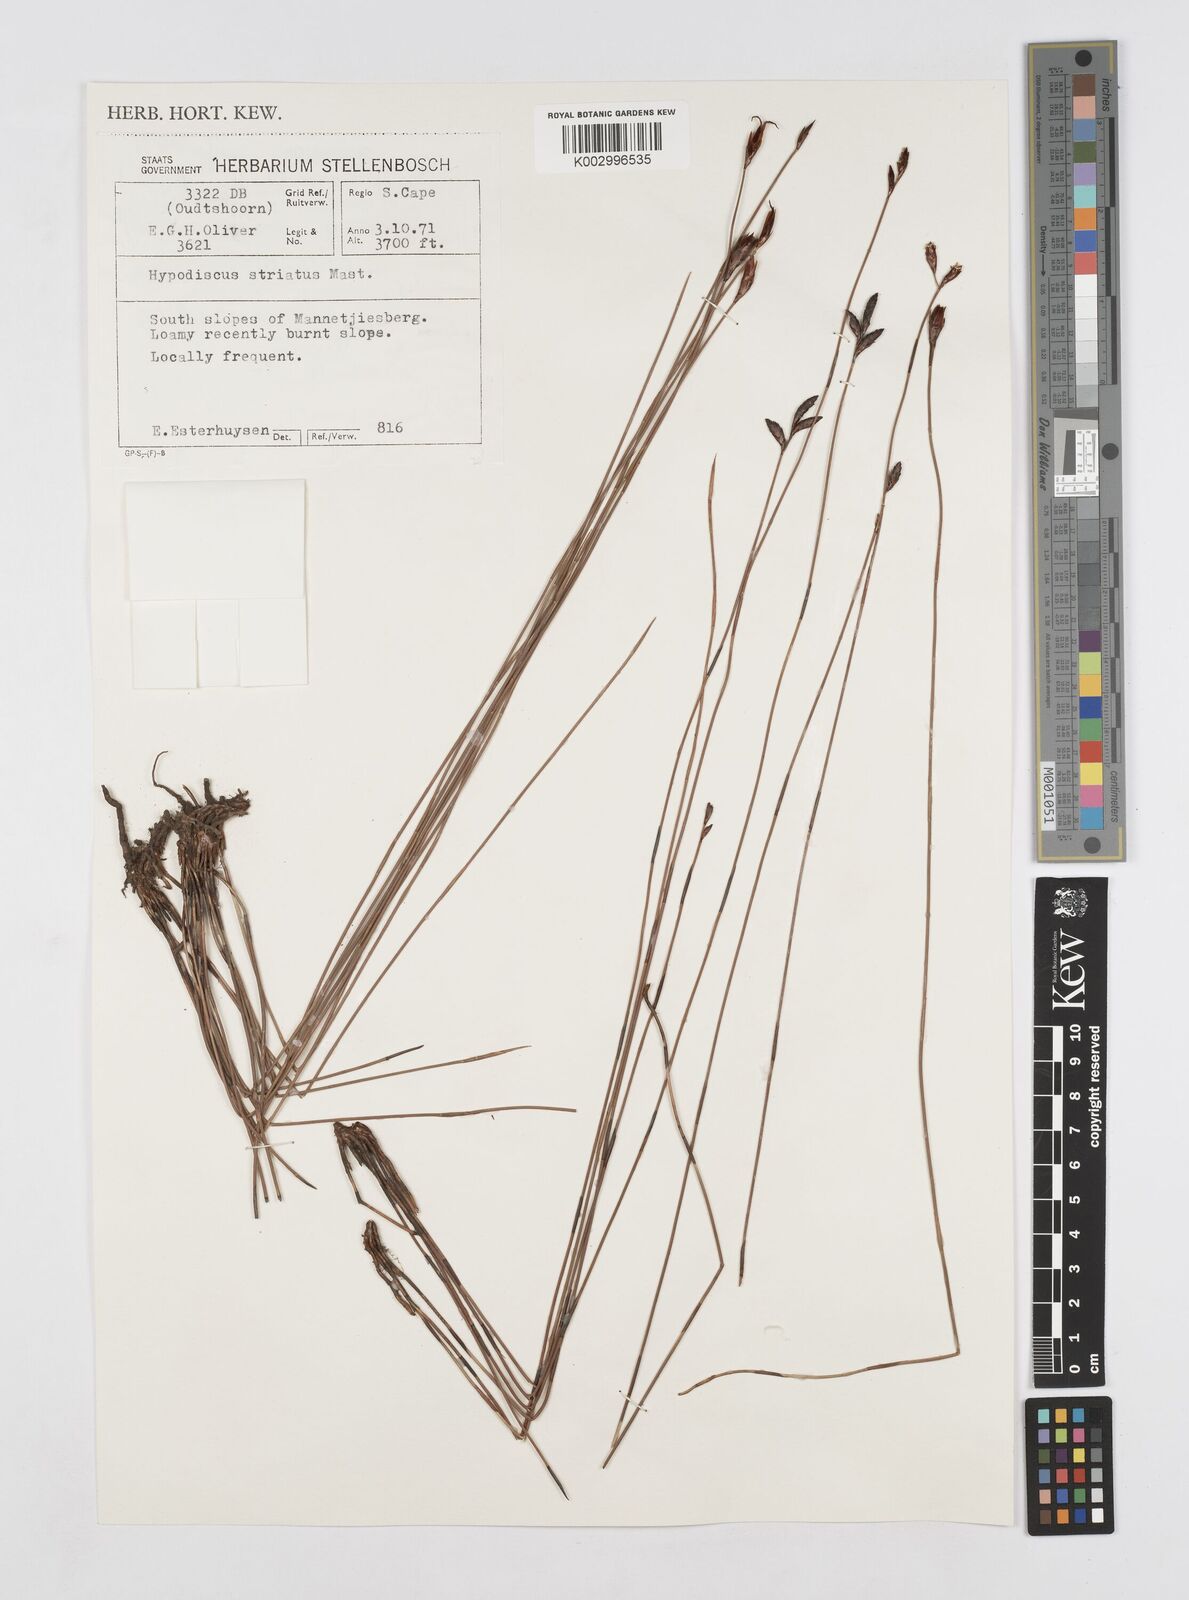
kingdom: Plantae
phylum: Tracheophyta
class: Liliopsida
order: Poales
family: Restionaceae
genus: Hypodiscus
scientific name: Hypodiscus striatus
